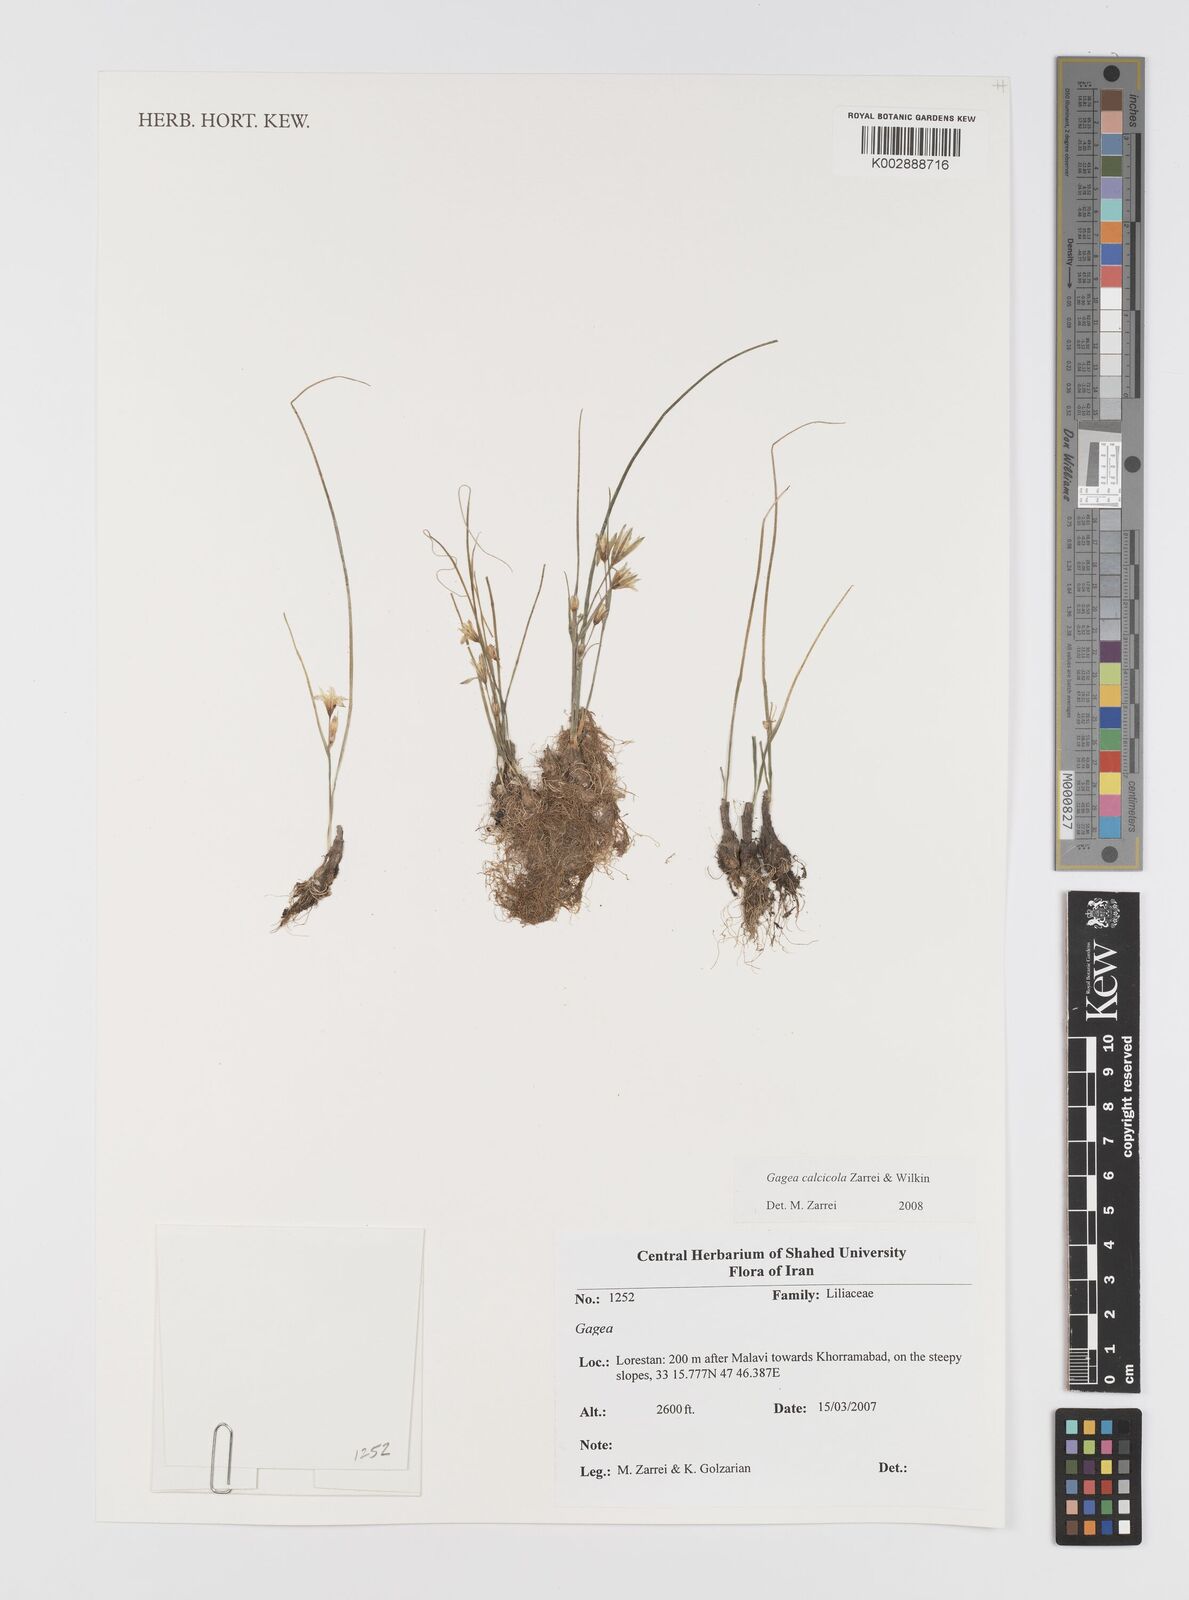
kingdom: Plantae
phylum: Tracheophyta
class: Liliopsida
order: Liliales
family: Liliaceae
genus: Gagea
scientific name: Gagea calcicola
